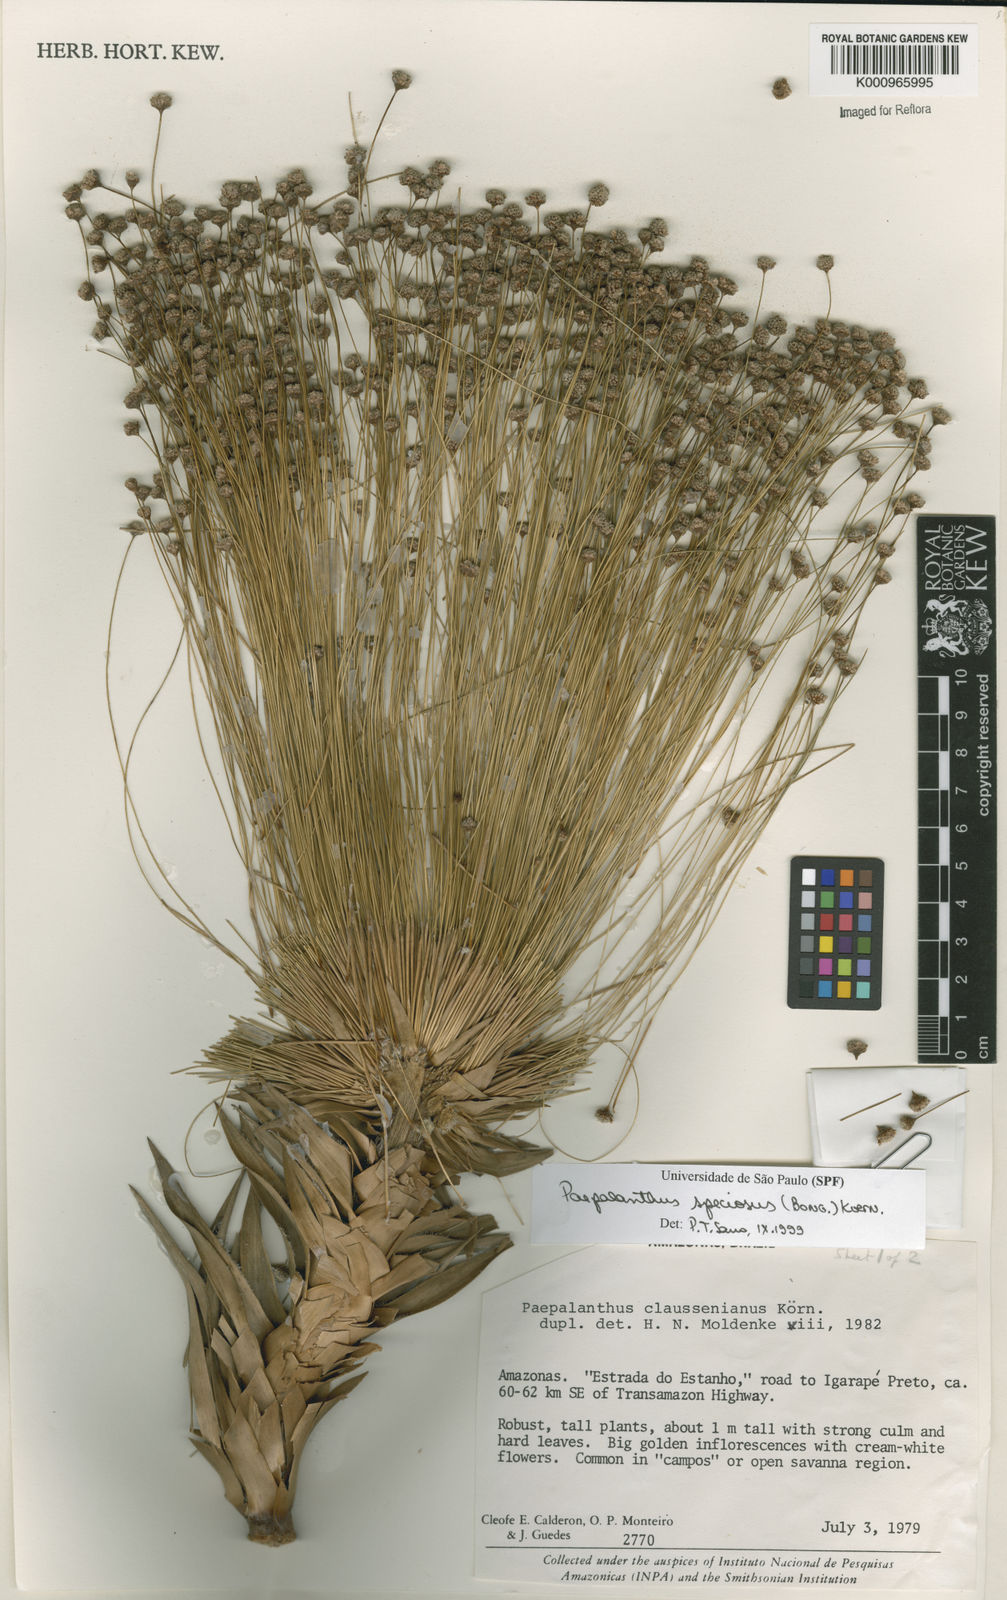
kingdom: Plantae
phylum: Tracheophyta
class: Liliopsida
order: Poales
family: Eriocaulaceae
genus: Paepalanthus
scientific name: Paepalanthus
